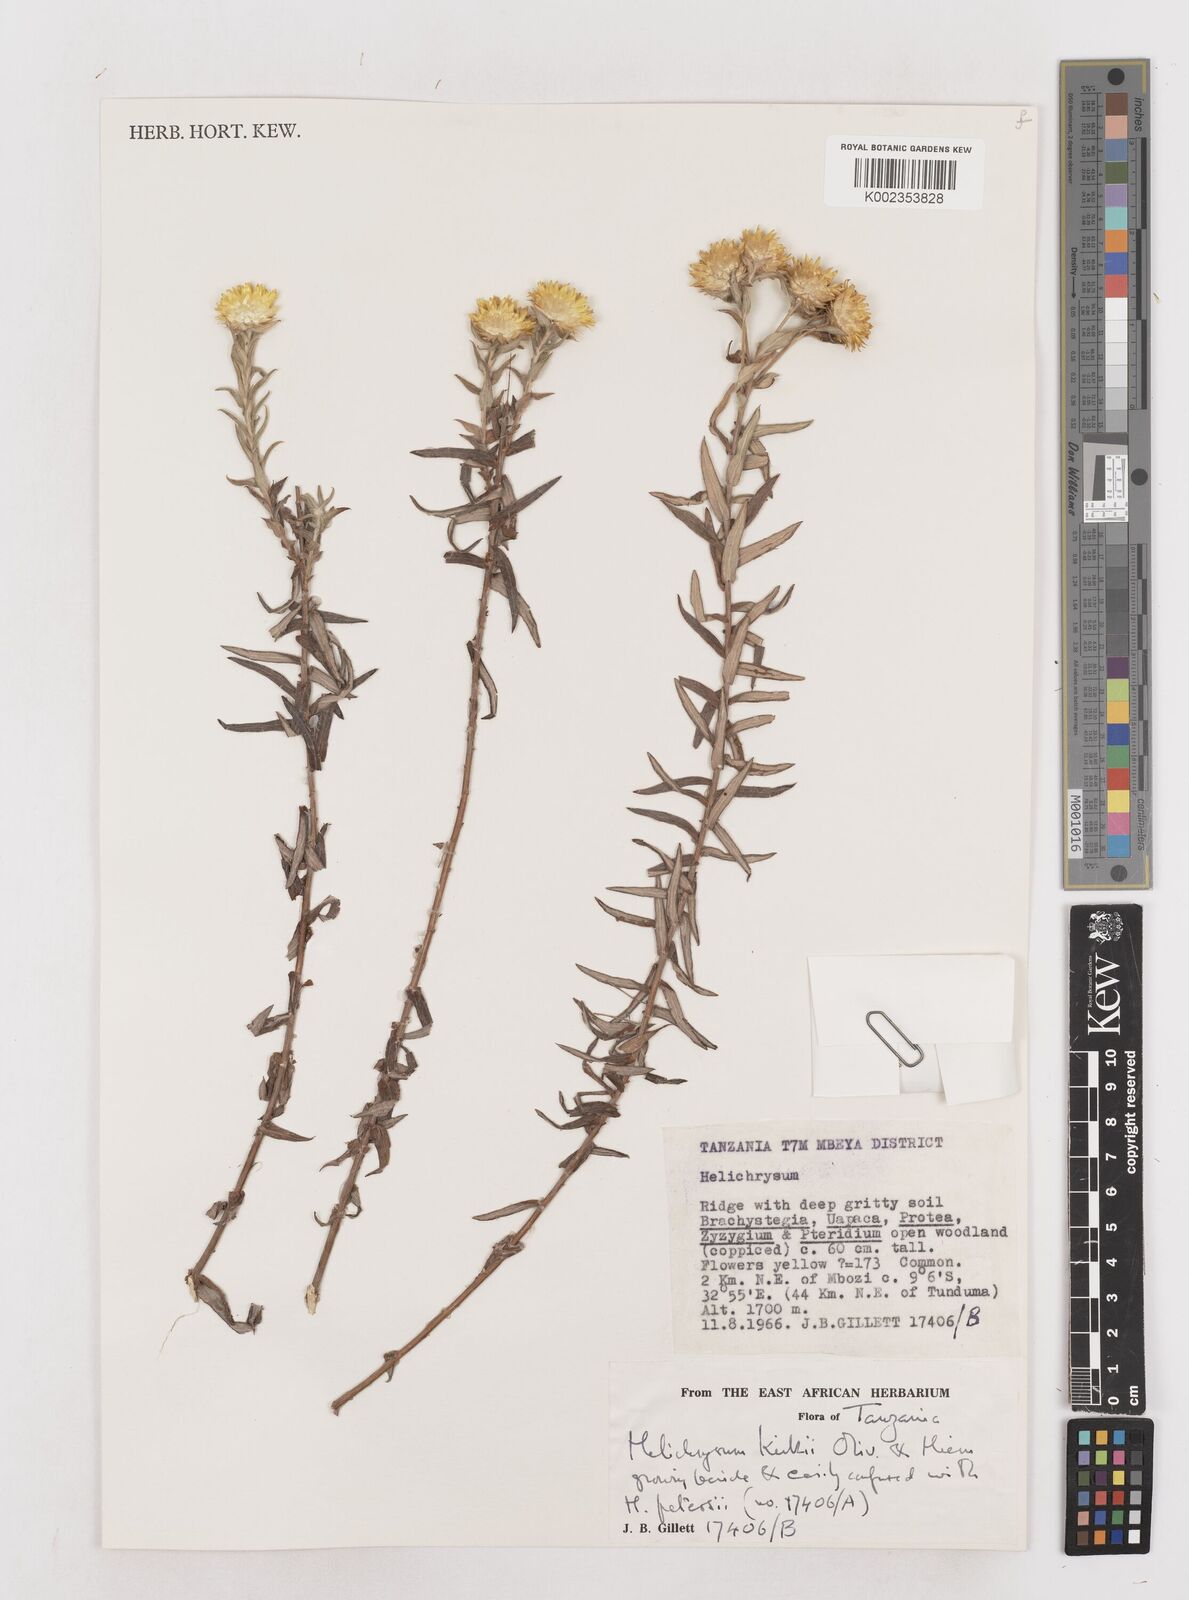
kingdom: Plantae
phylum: Tracheophyta
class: Magnoliopsida
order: Asterales
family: Asteraceae
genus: Helichrysum
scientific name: Helichrysum kirkii
